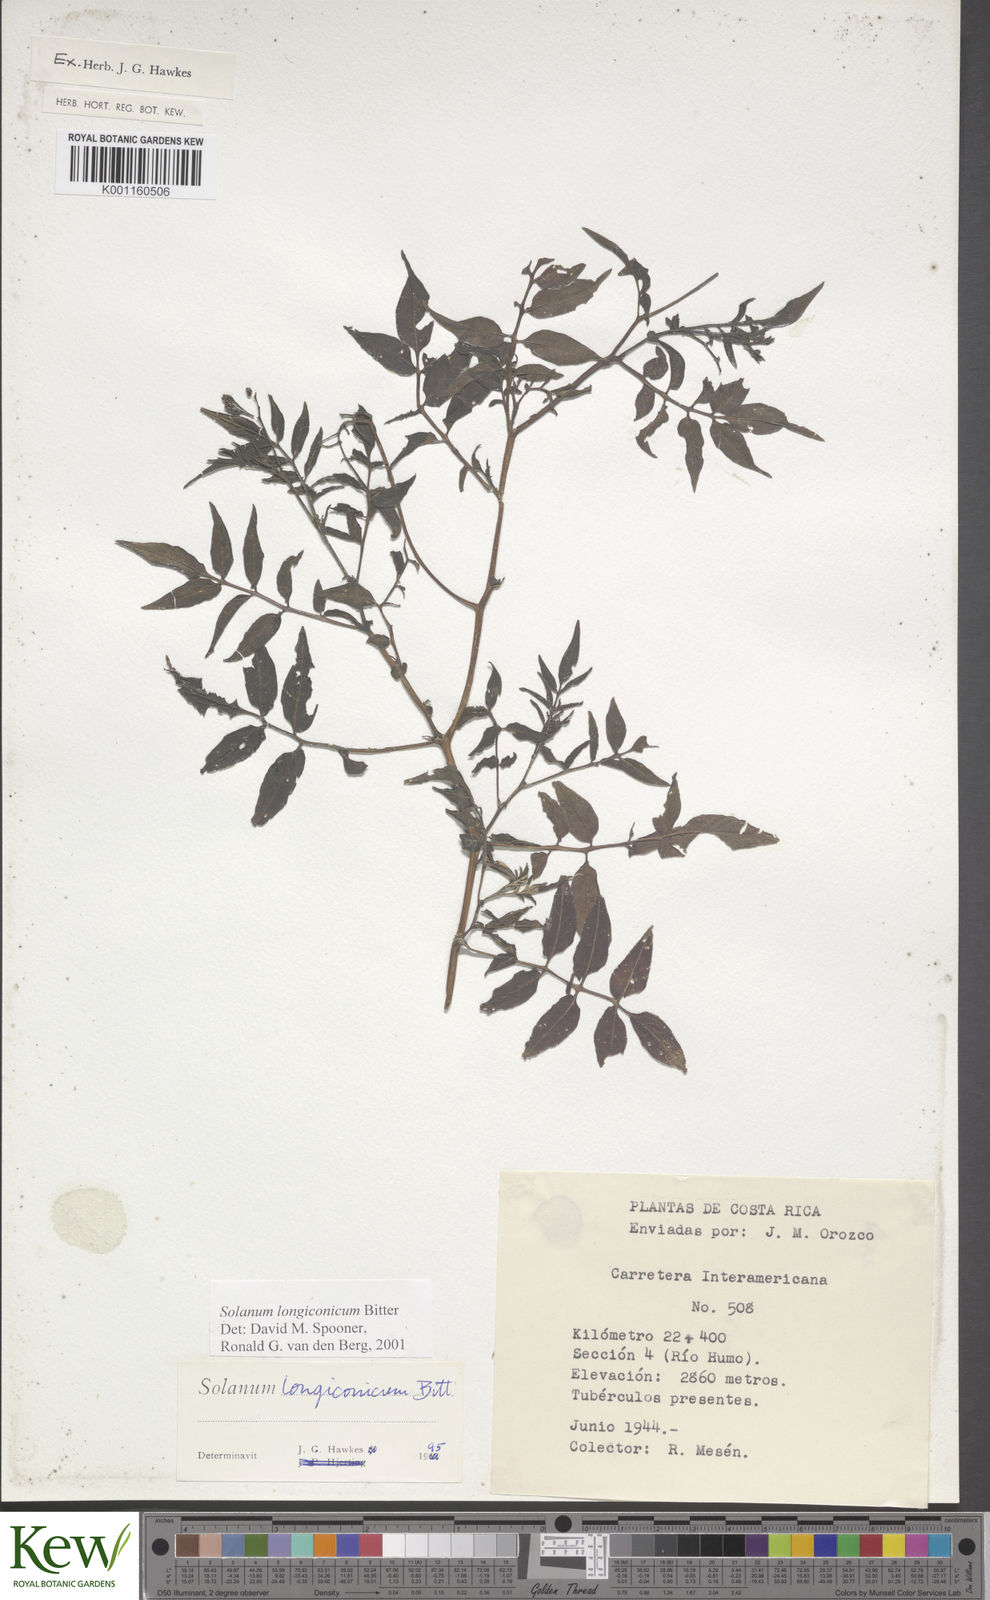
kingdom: Plantae
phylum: Tracheophyta
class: Magnoliopsida
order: Solanales
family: Solanaceae
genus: Solanum
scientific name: Solanum longiconicum
